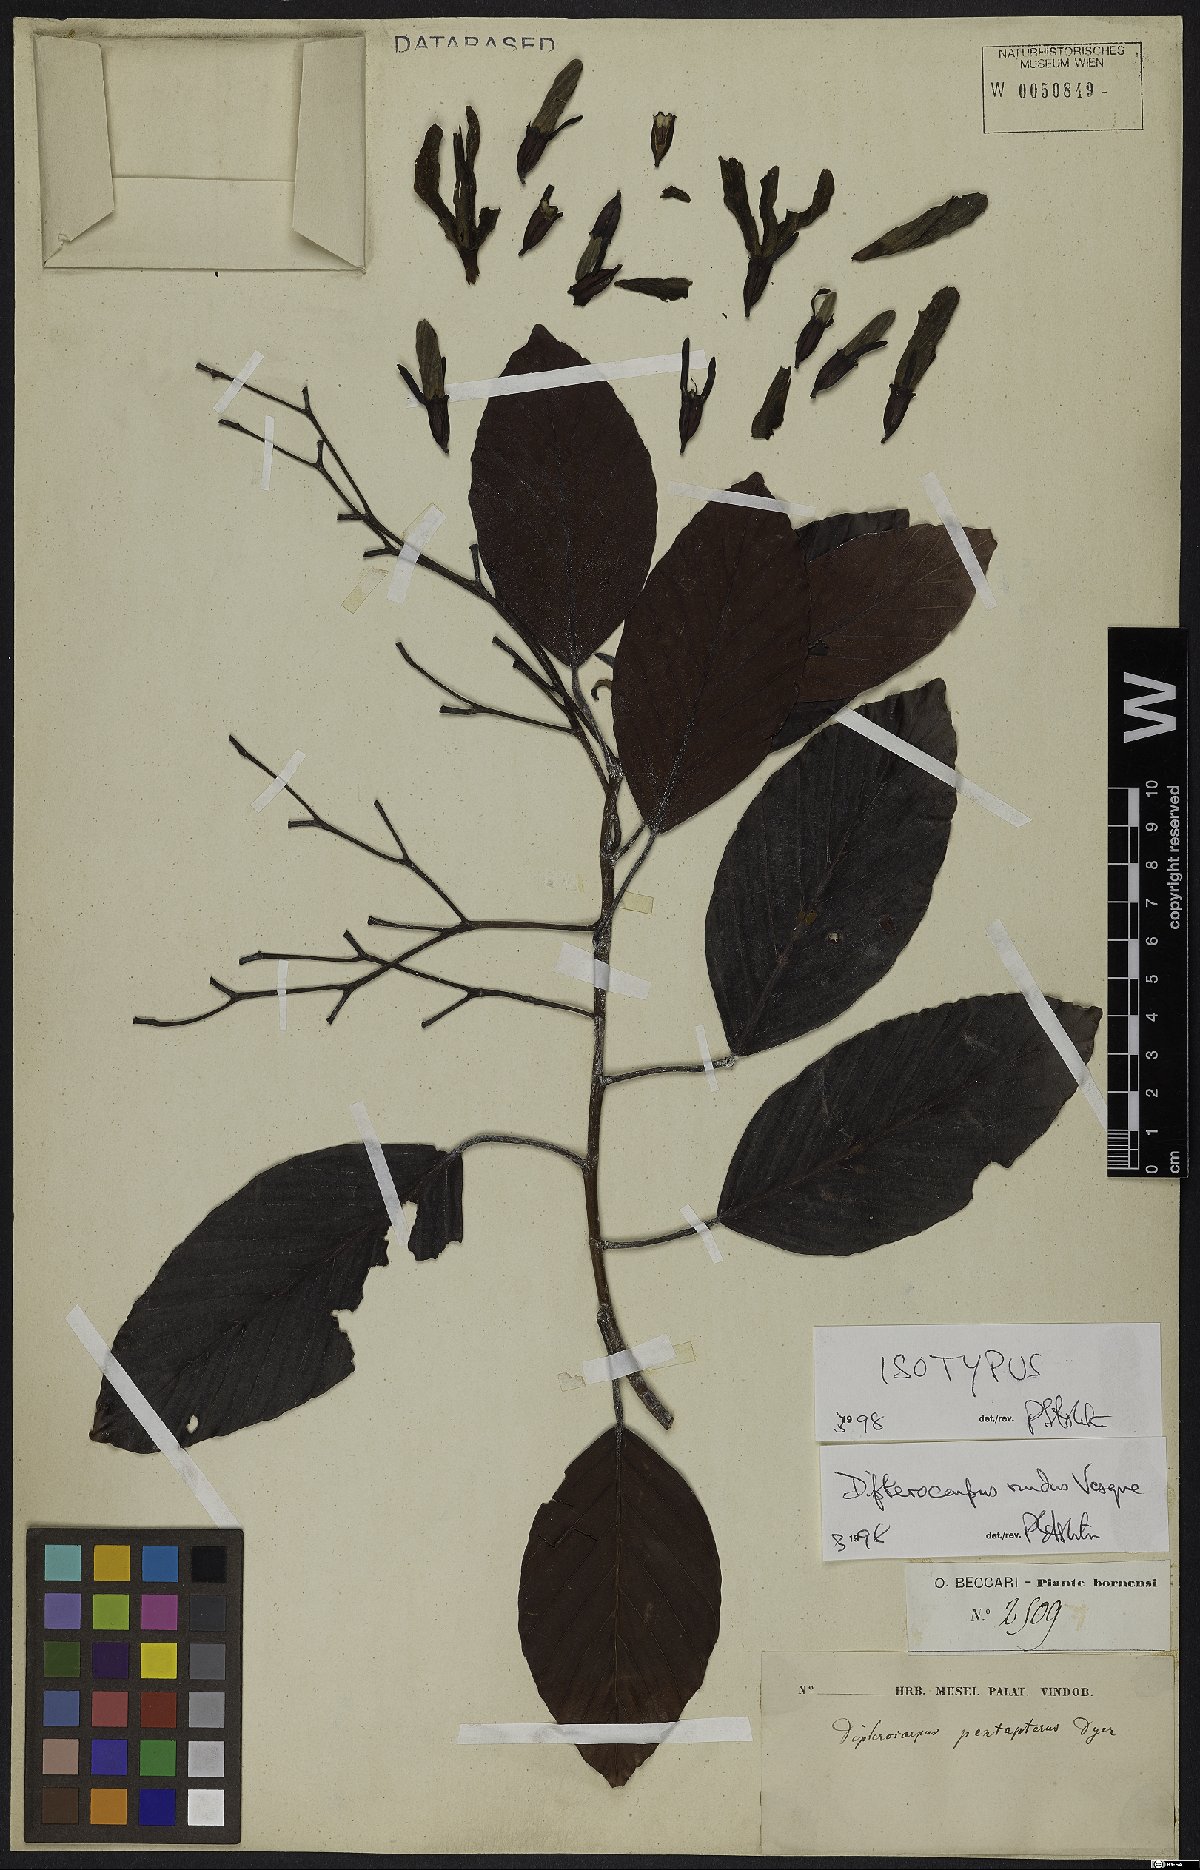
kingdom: Plantae
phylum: Tracheophyta
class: Magnoliopsida
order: Malvales
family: Dipterocarpaceae
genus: Dipterocarpus
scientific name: Dipterocarpus nudus
